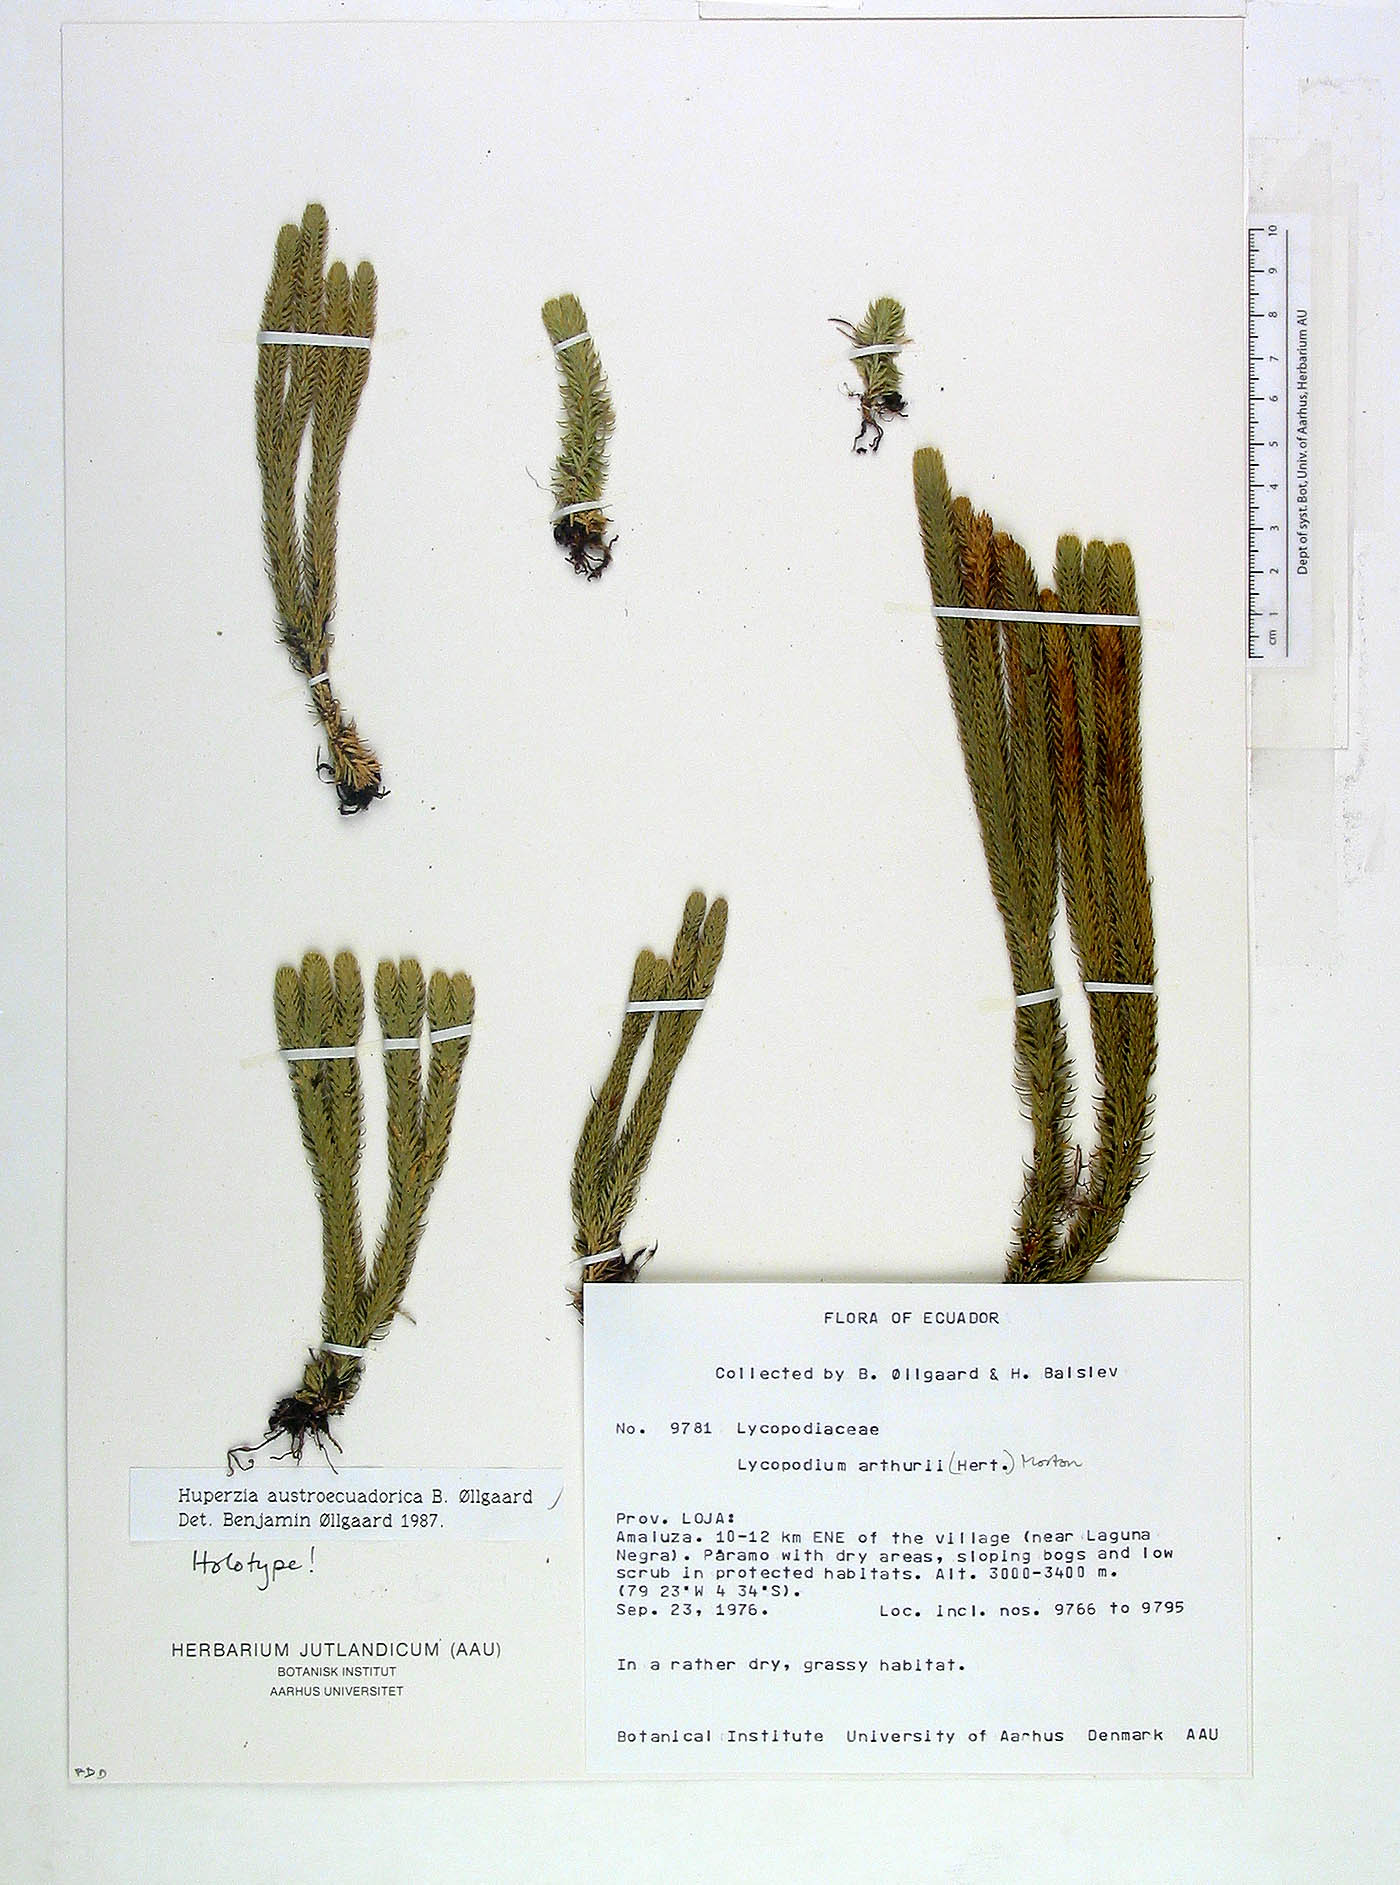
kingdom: Plantae
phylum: Tracheophyta
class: Lycopodiopsida
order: Lycopodiales
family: Lycopodiaceae
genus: Phlegmariurus
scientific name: Phlegmariurus austroecuadoricus
